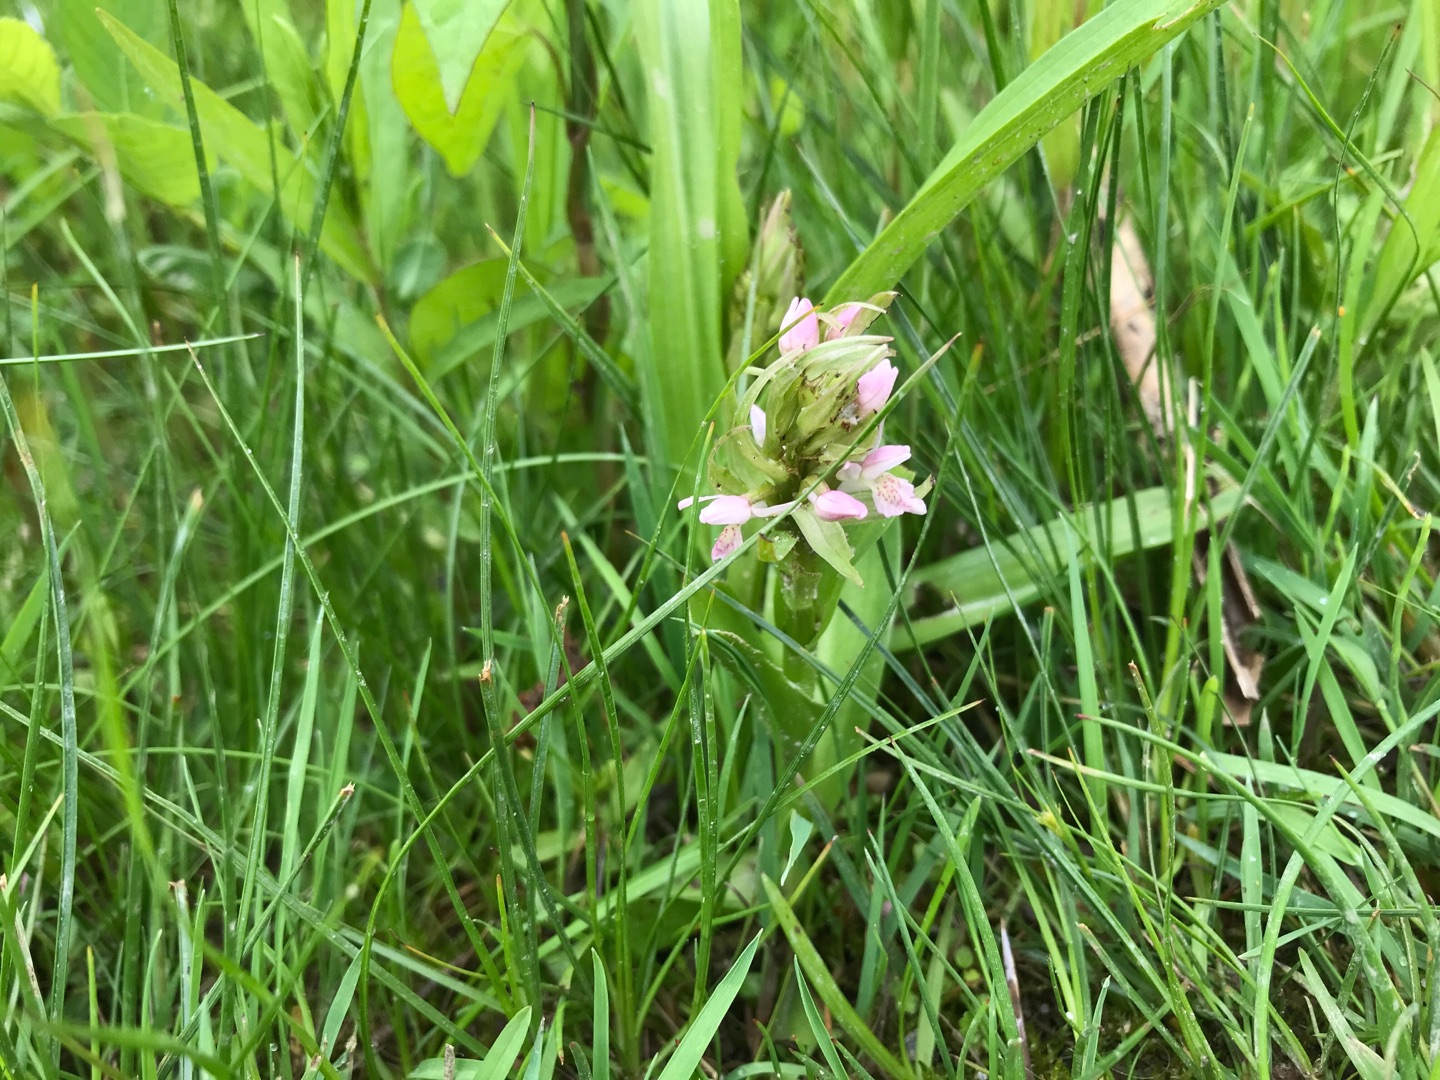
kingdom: Plantae
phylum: Tracheophyta
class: Liliopsida
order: Asparagales
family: Orchidaceae
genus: Dactylorhiza
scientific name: Dactylorhiza incarnata
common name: Kødfarvet gøgeurt
